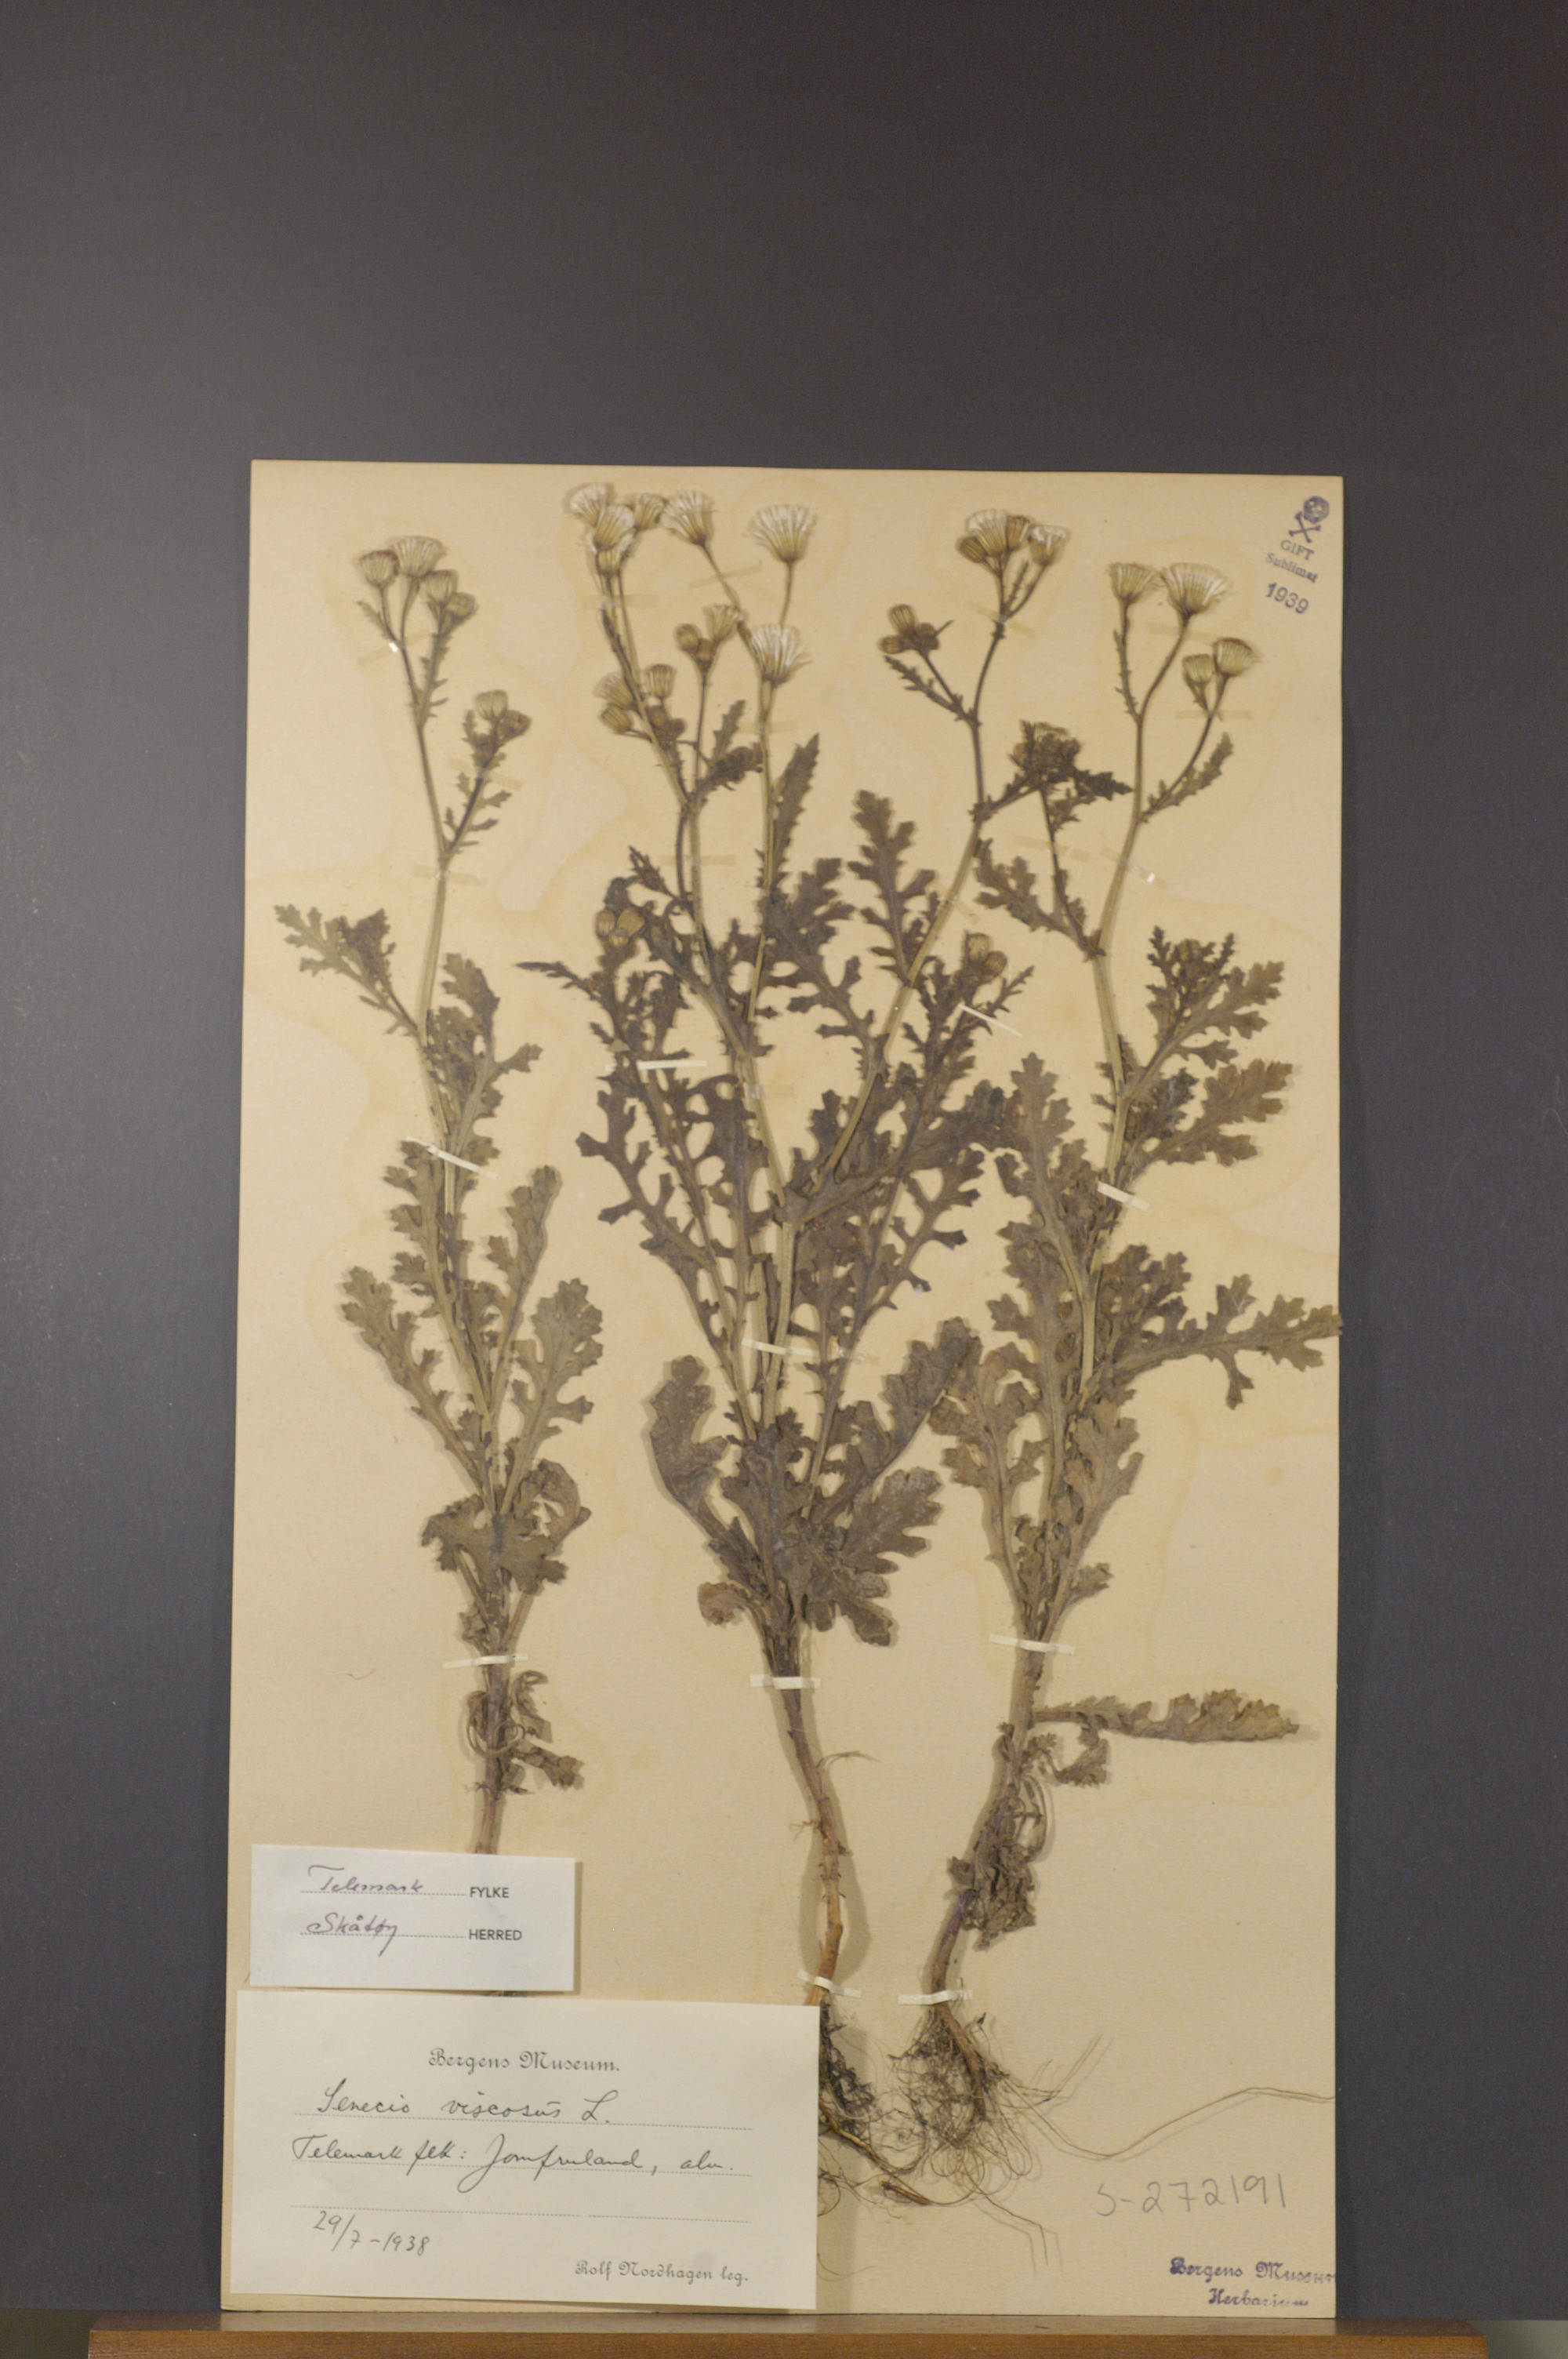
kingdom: Plantae
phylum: Tracheophyta
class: Magnoliopsida
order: Asterales
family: Asteraceae
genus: Senecio
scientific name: Senecio viscosus
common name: Sticky groundsel
